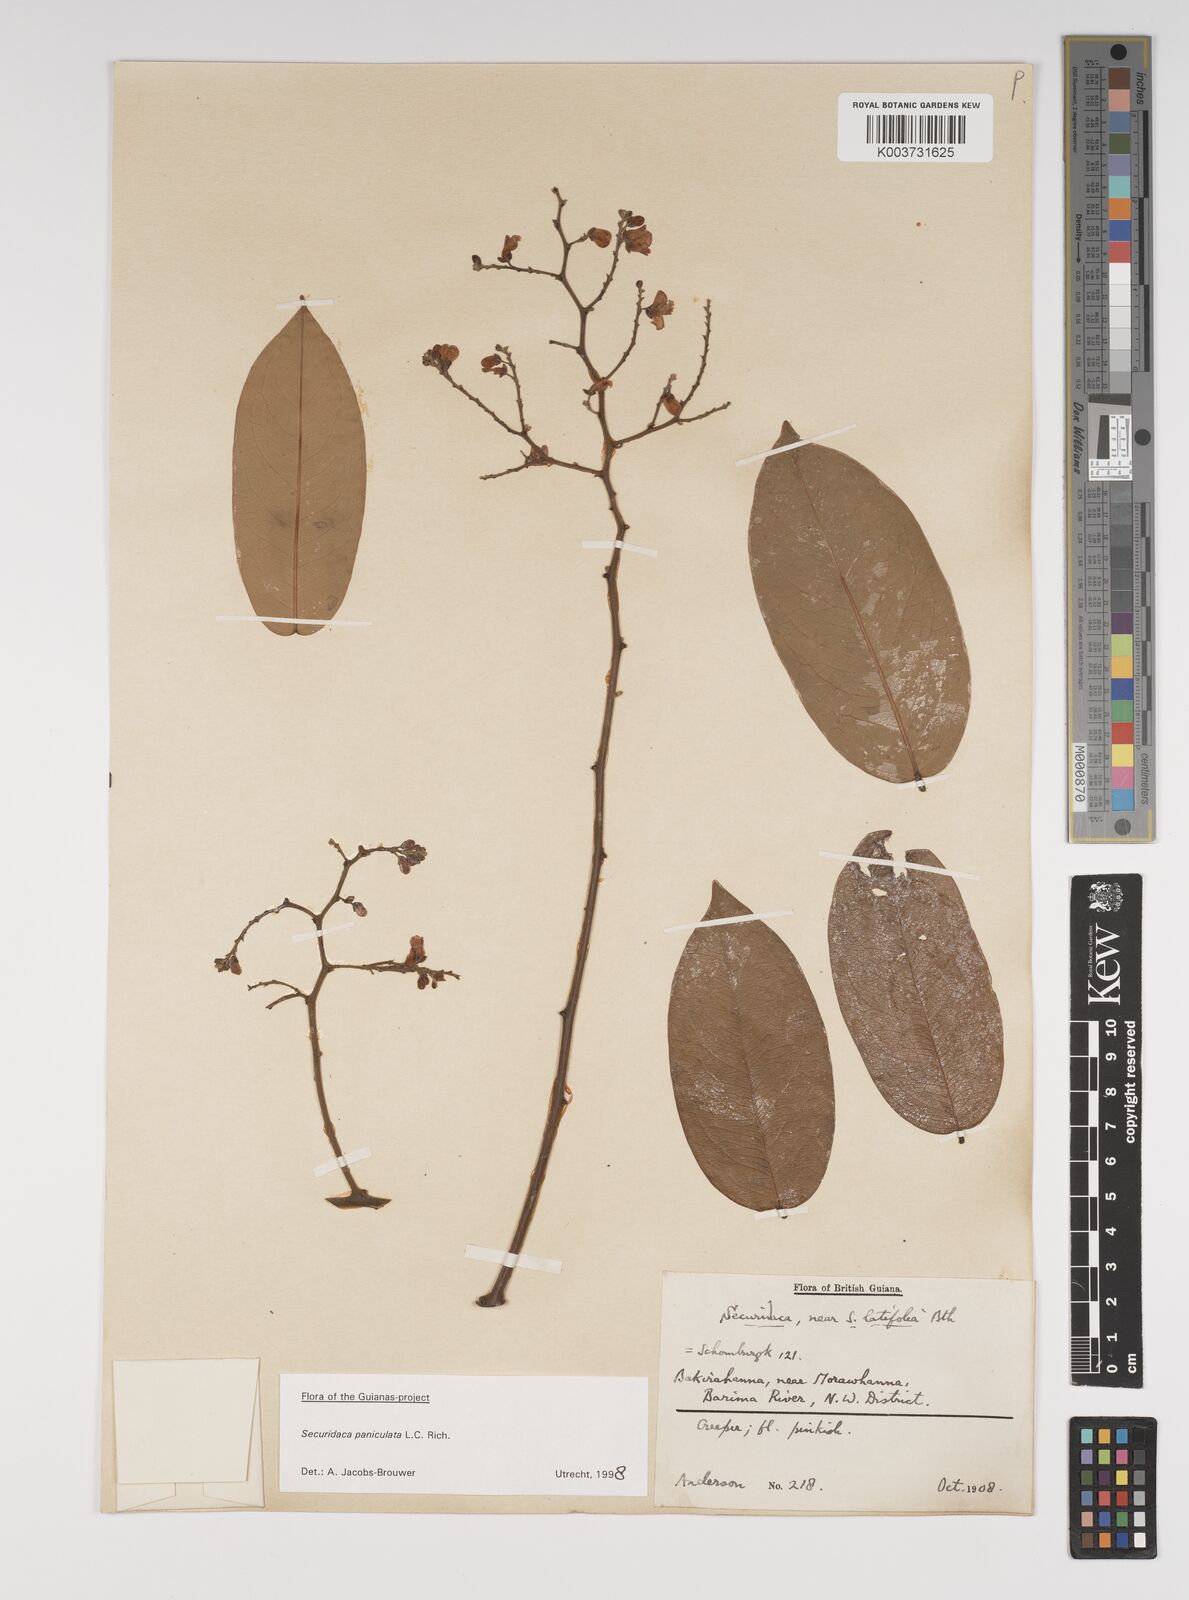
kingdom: Plantae
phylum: Tracheophyta
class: Magnoliopsida
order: Fabales
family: Polygalaceae
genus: Securidaca
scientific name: Securidaca paniculata
